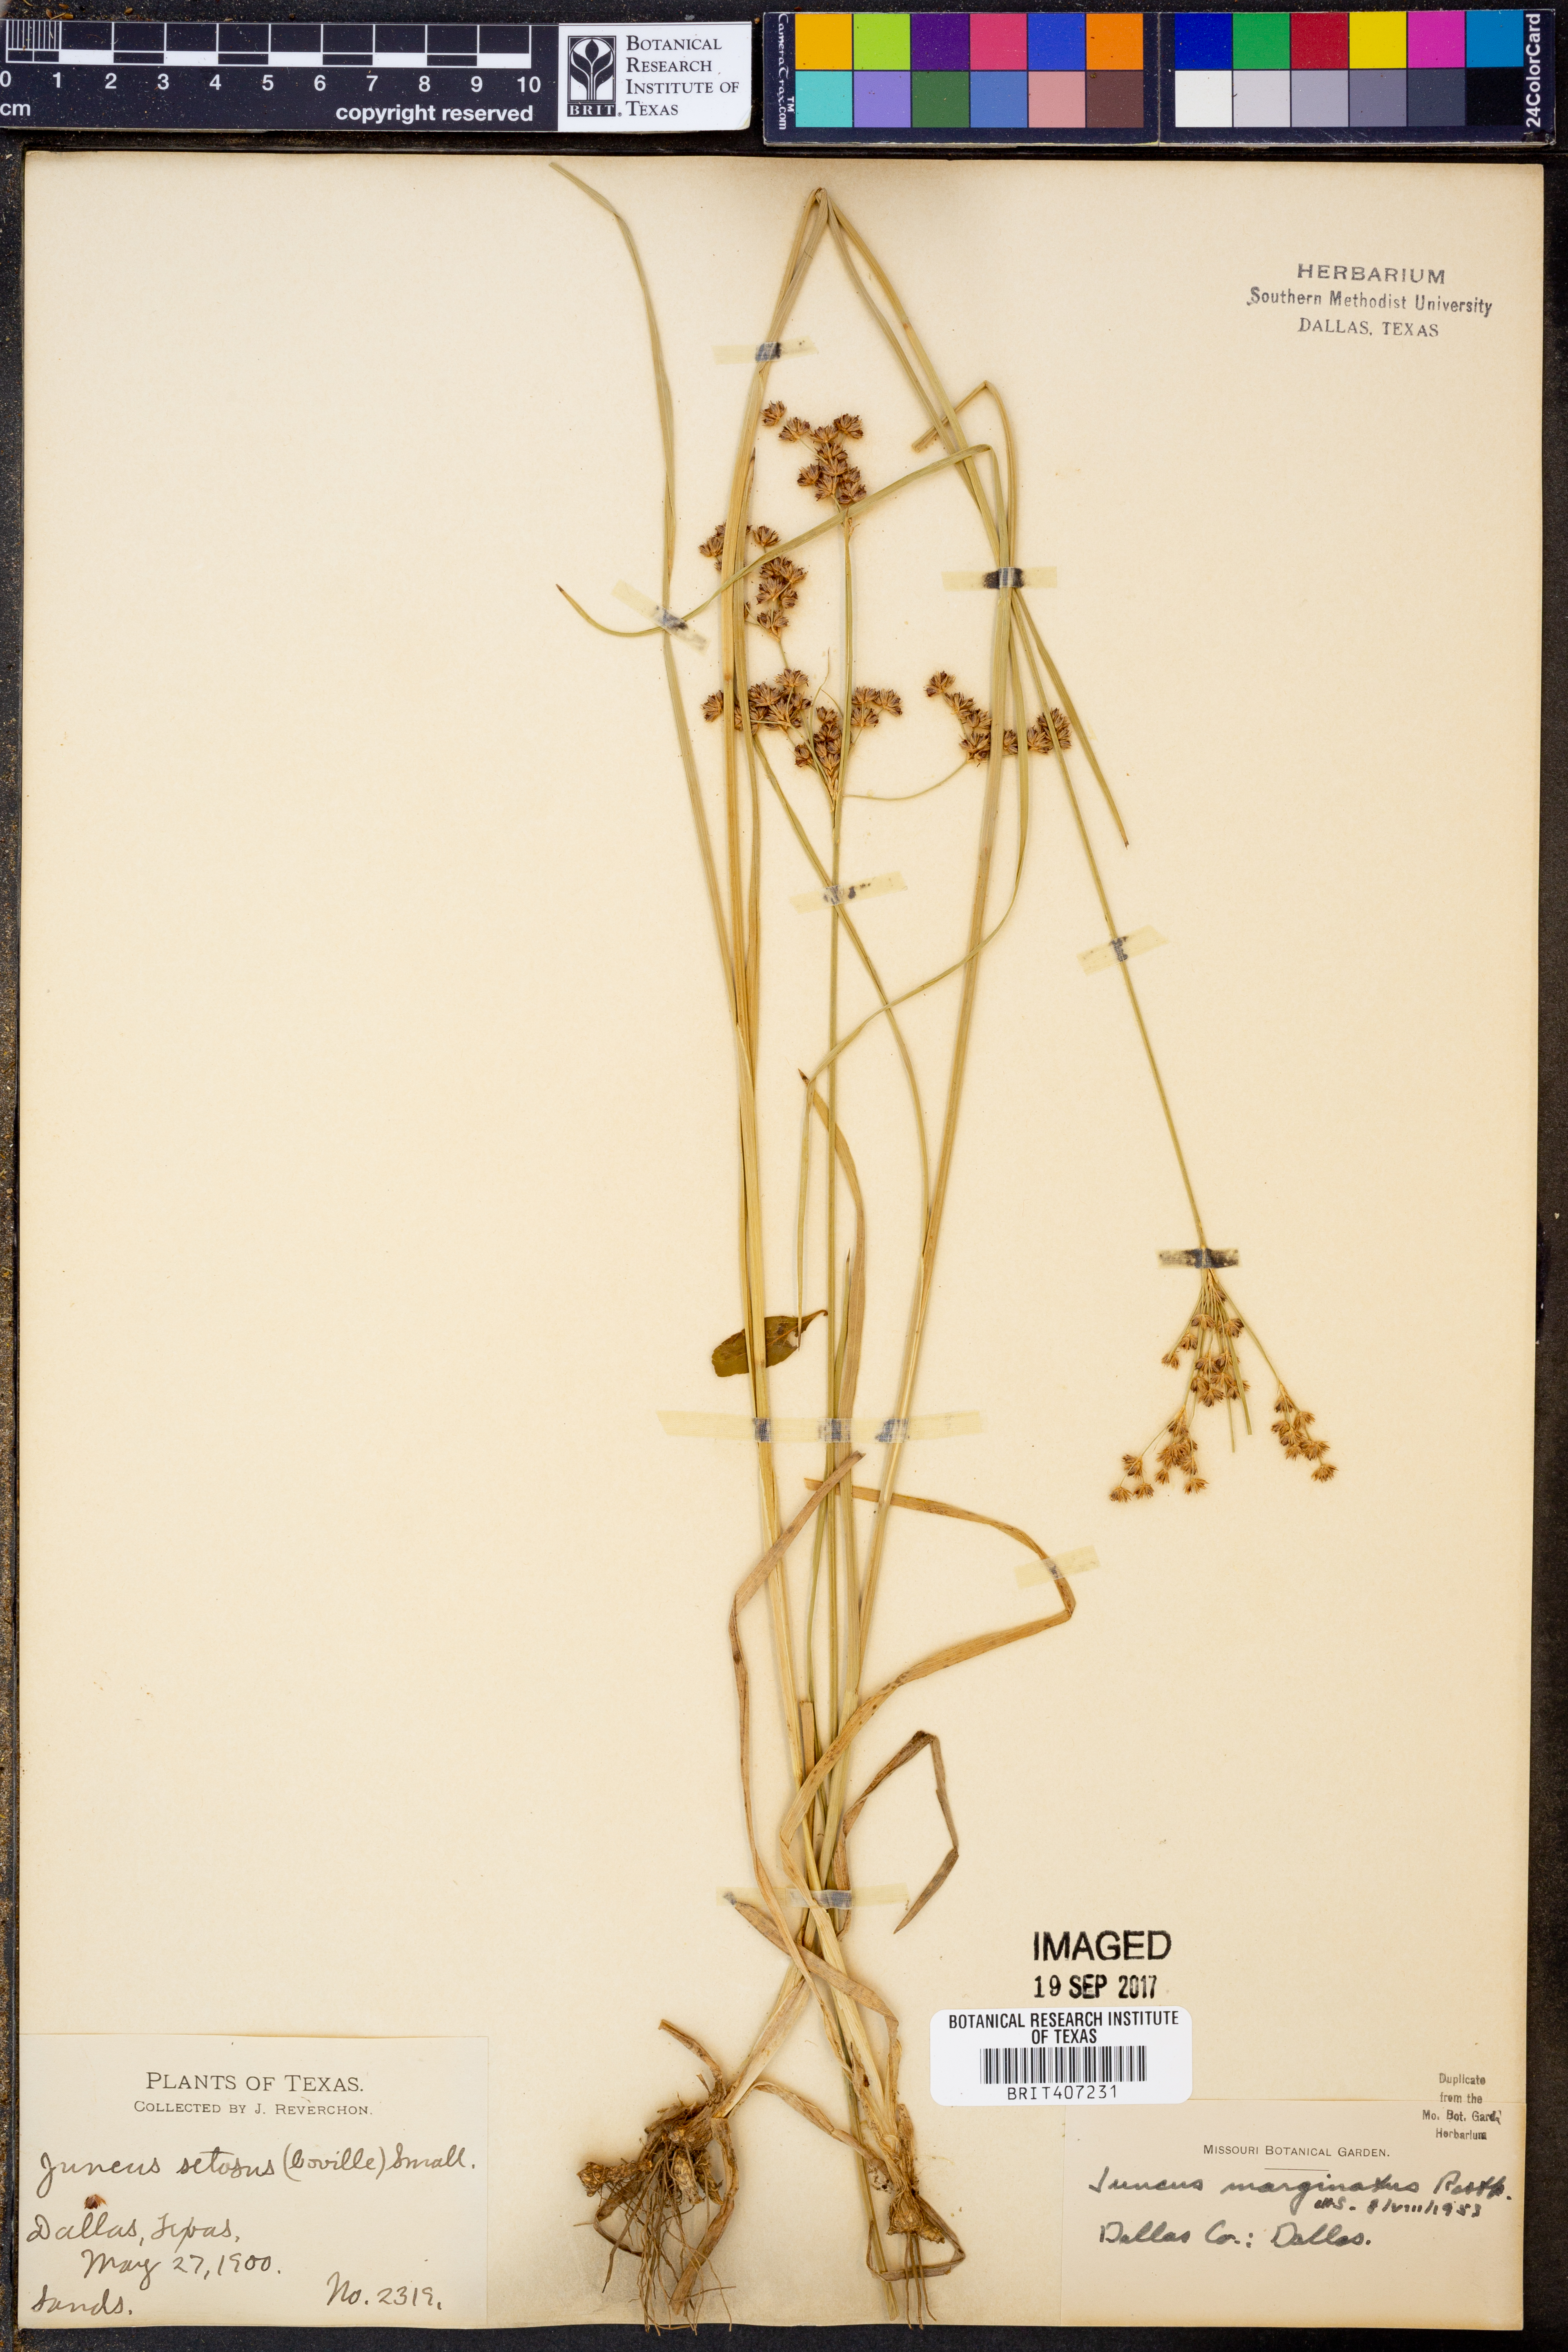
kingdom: Plantae
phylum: Tracheophyta
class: Liliopsida
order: Poales
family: Juncaceae
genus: Juncus
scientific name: Juncus marginatus
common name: Grass-leaf rush
